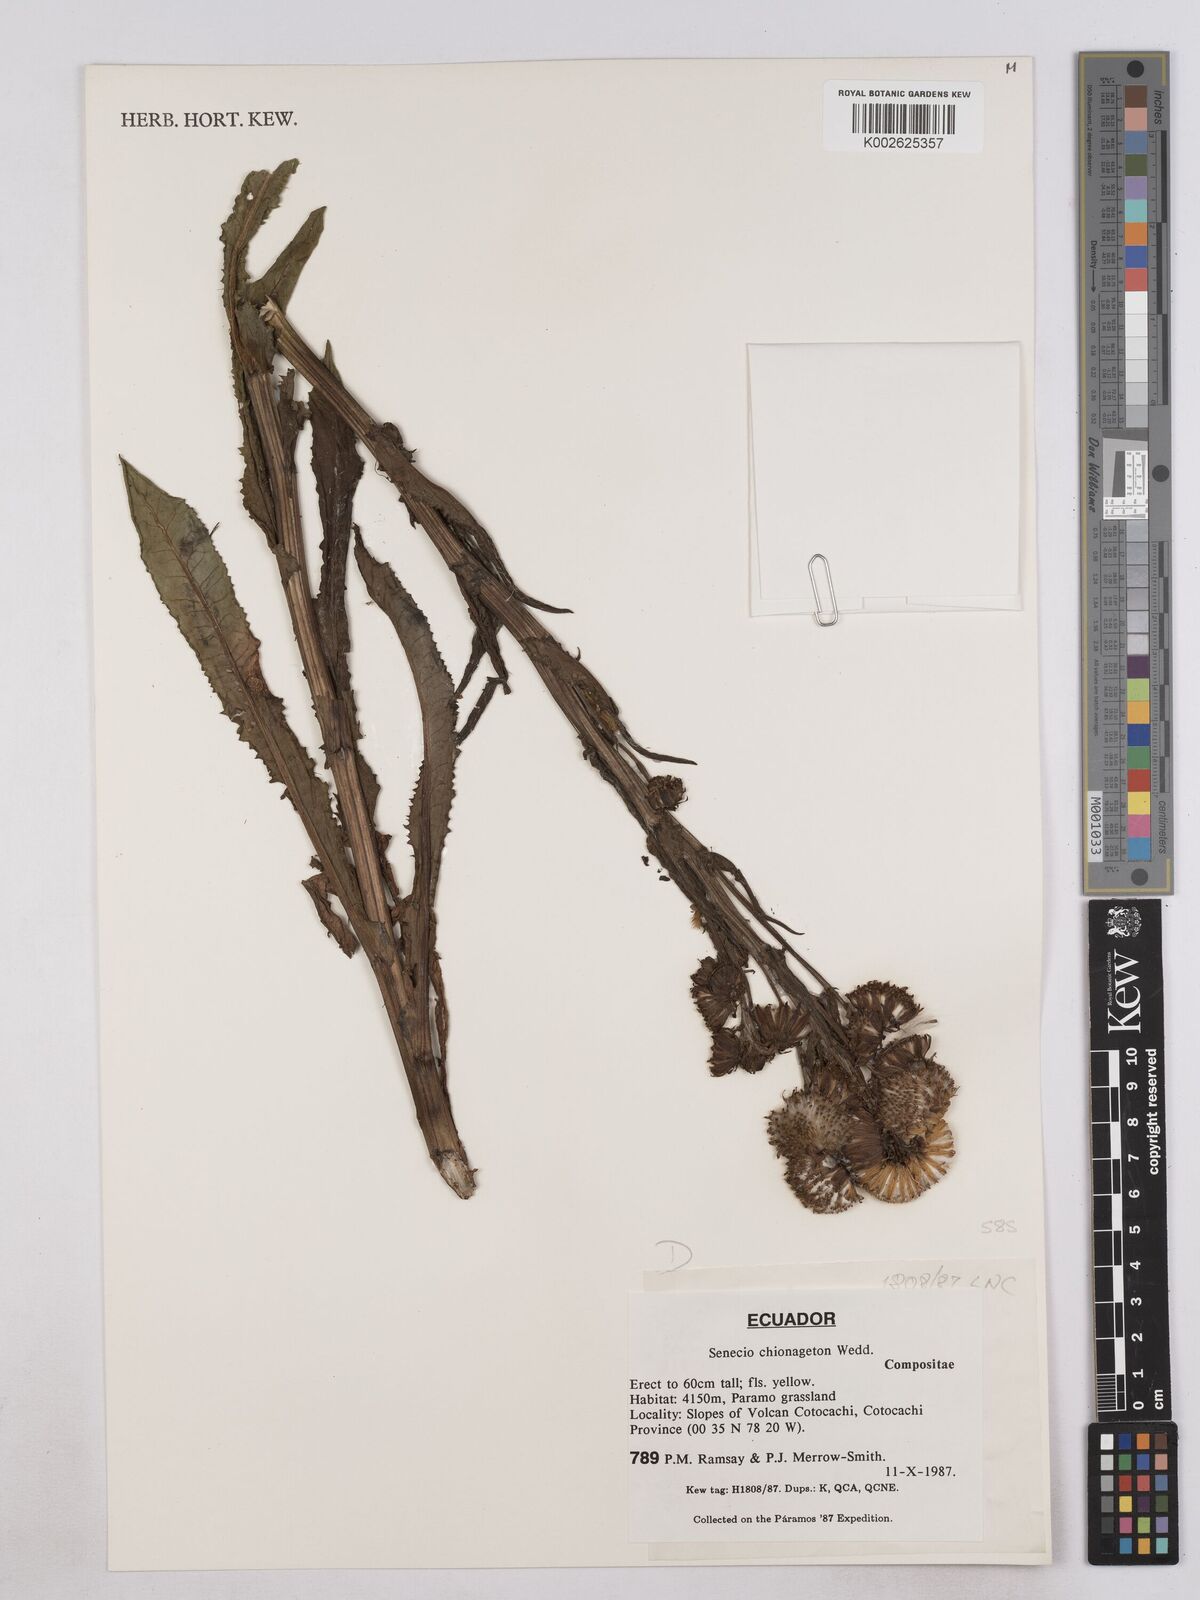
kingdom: Plantae
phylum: Tracheophyta
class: Magnoliopsida
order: Asterales
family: Asteraceae
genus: Senecio
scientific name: Senecio chionogeton
